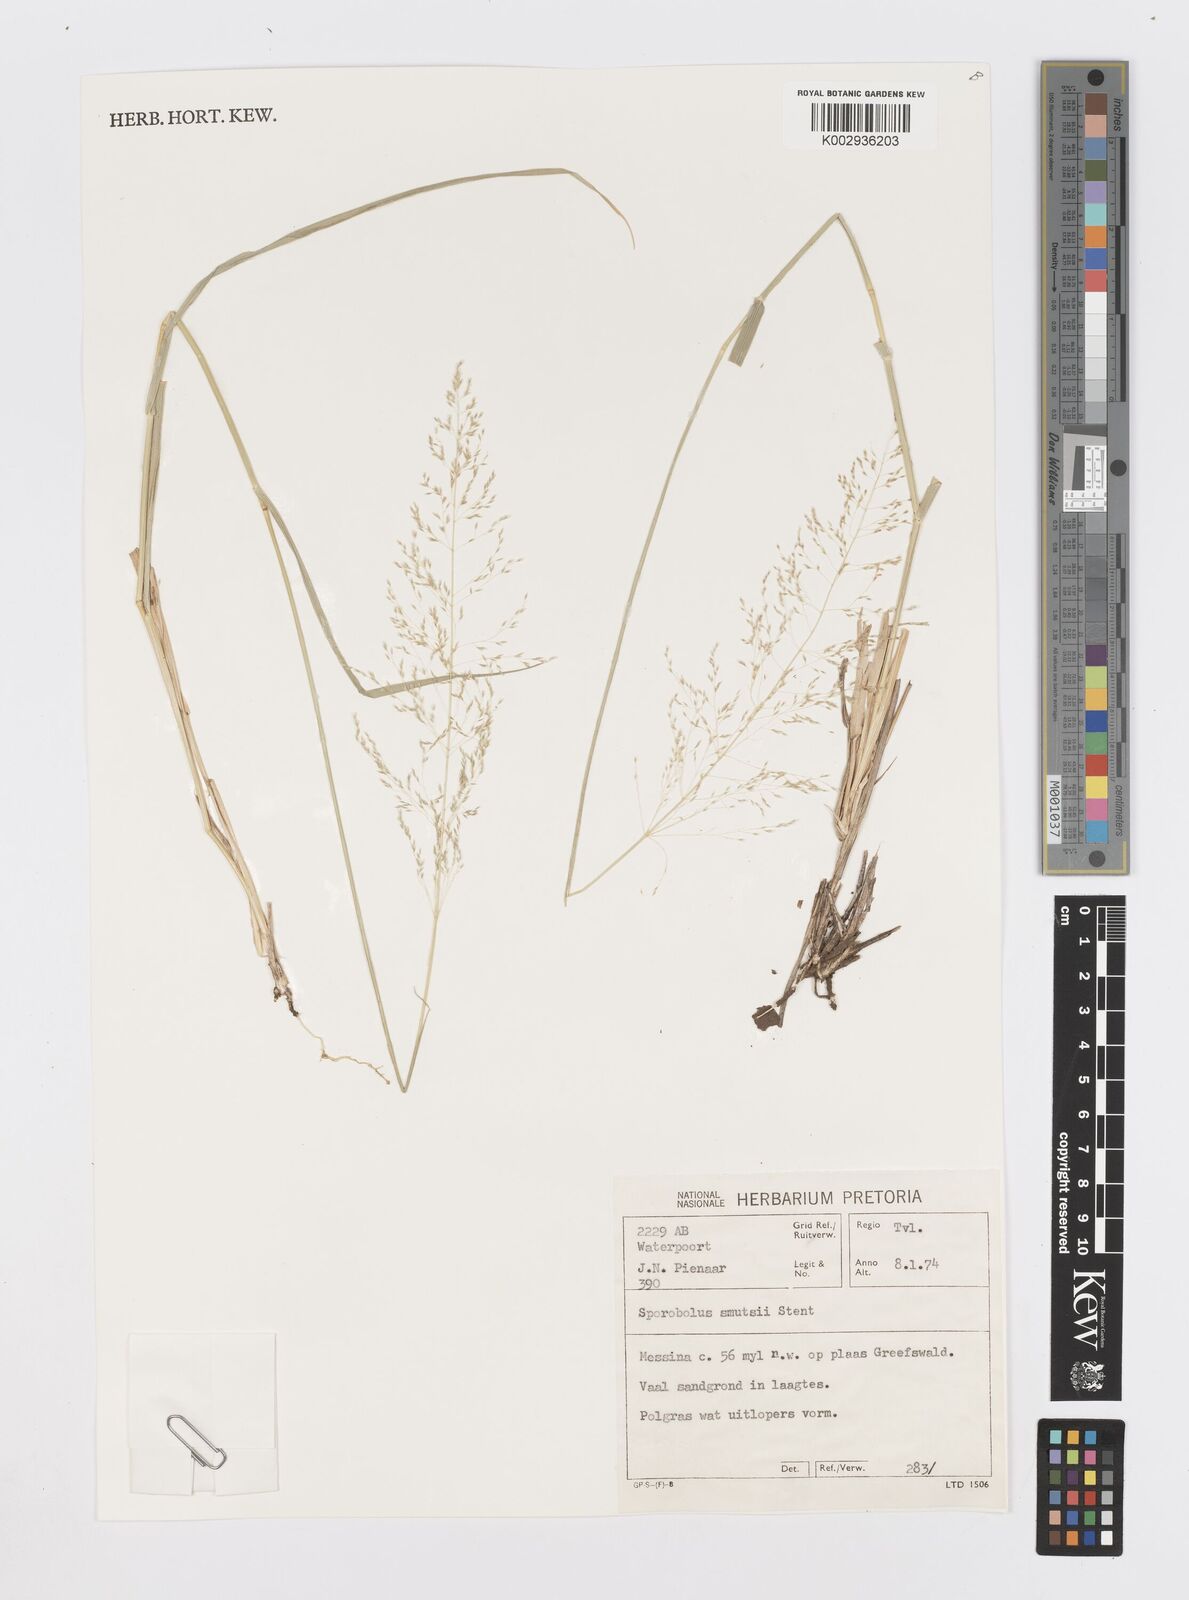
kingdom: Plantae
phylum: Tracheophyta
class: Liliopsida
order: Poales
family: Poaceae
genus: Sporobolus
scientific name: Sporobolus ioclados
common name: Pan dropseed
